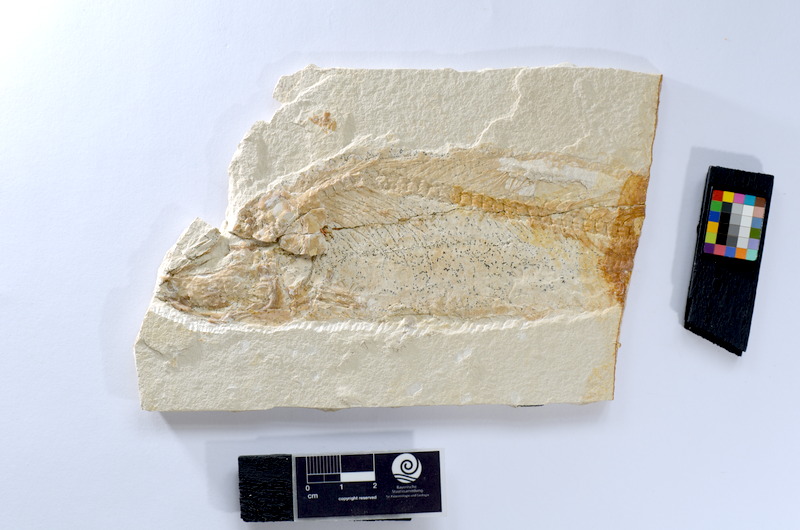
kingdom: Animalia
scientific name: Animalia
